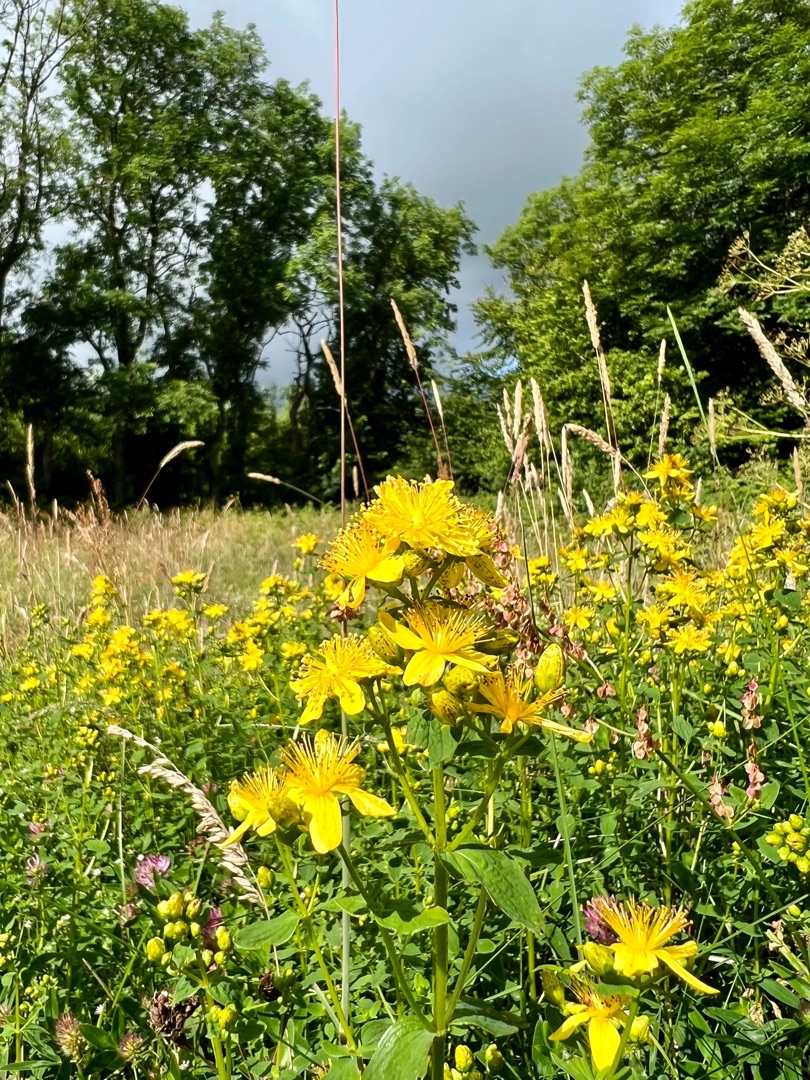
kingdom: Plantae
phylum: Tracheophyta
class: Magnoliopsida
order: Malpighiales
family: Hypericaceae
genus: Hypericum
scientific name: Hypericum maculatum
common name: Kantet perikon
